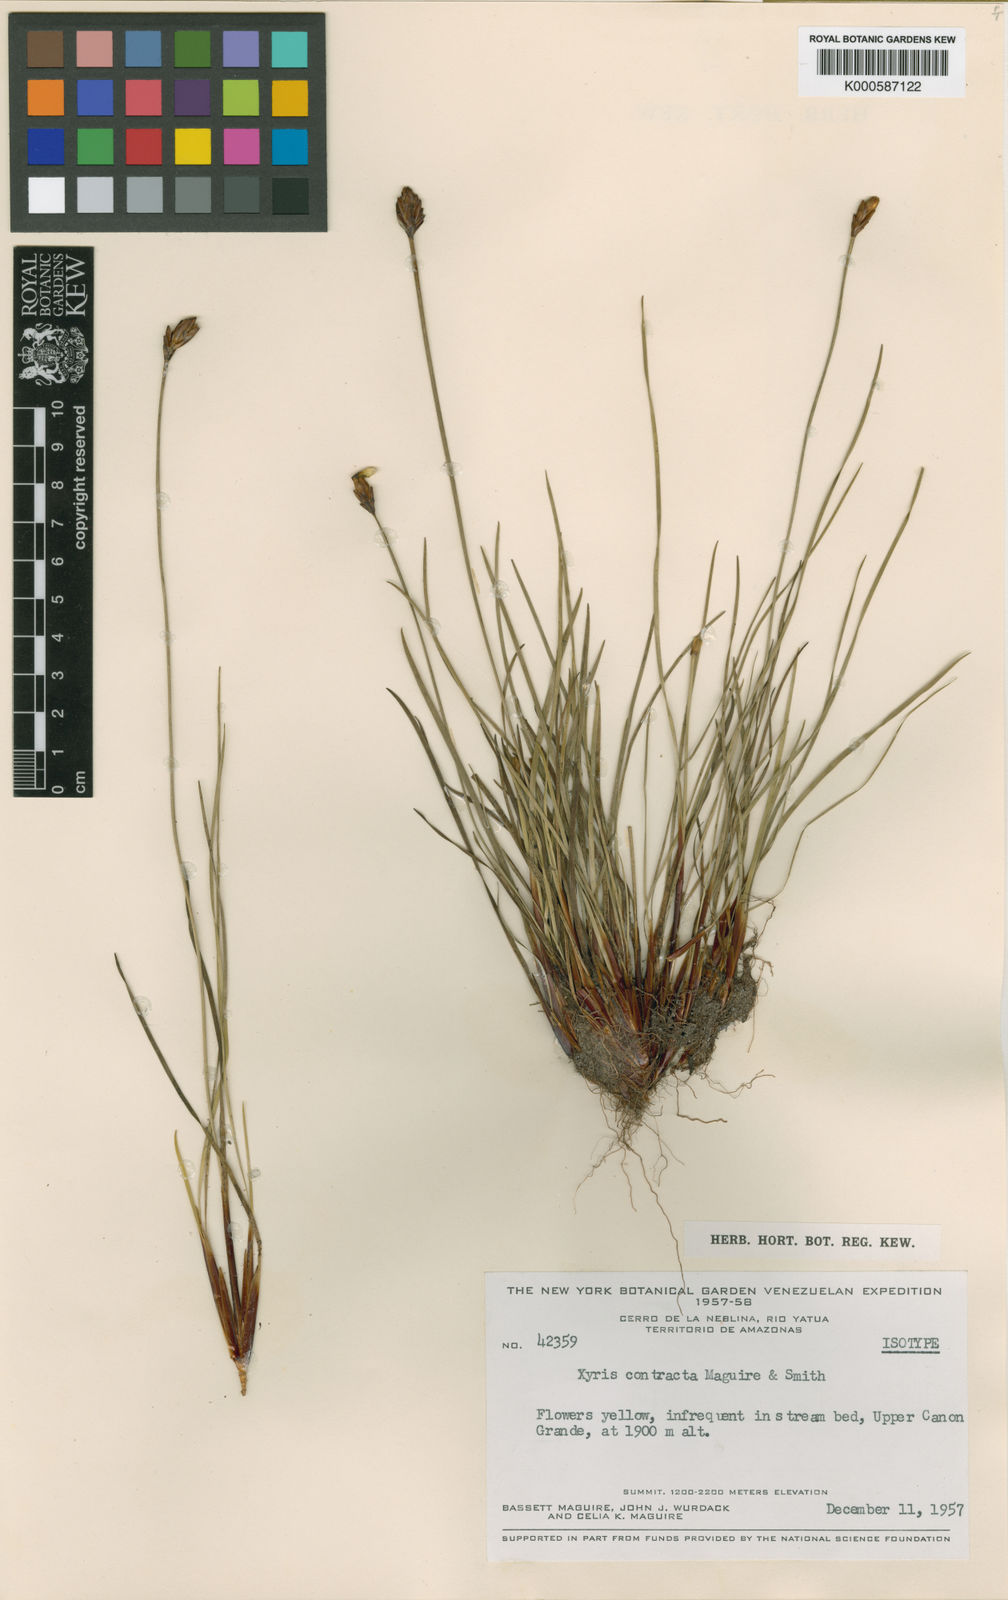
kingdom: Plantae
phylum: Tracheophyta
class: Liliopsida
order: Poales
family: Xyridaceae
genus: Xyris
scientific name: Xyris contracta
